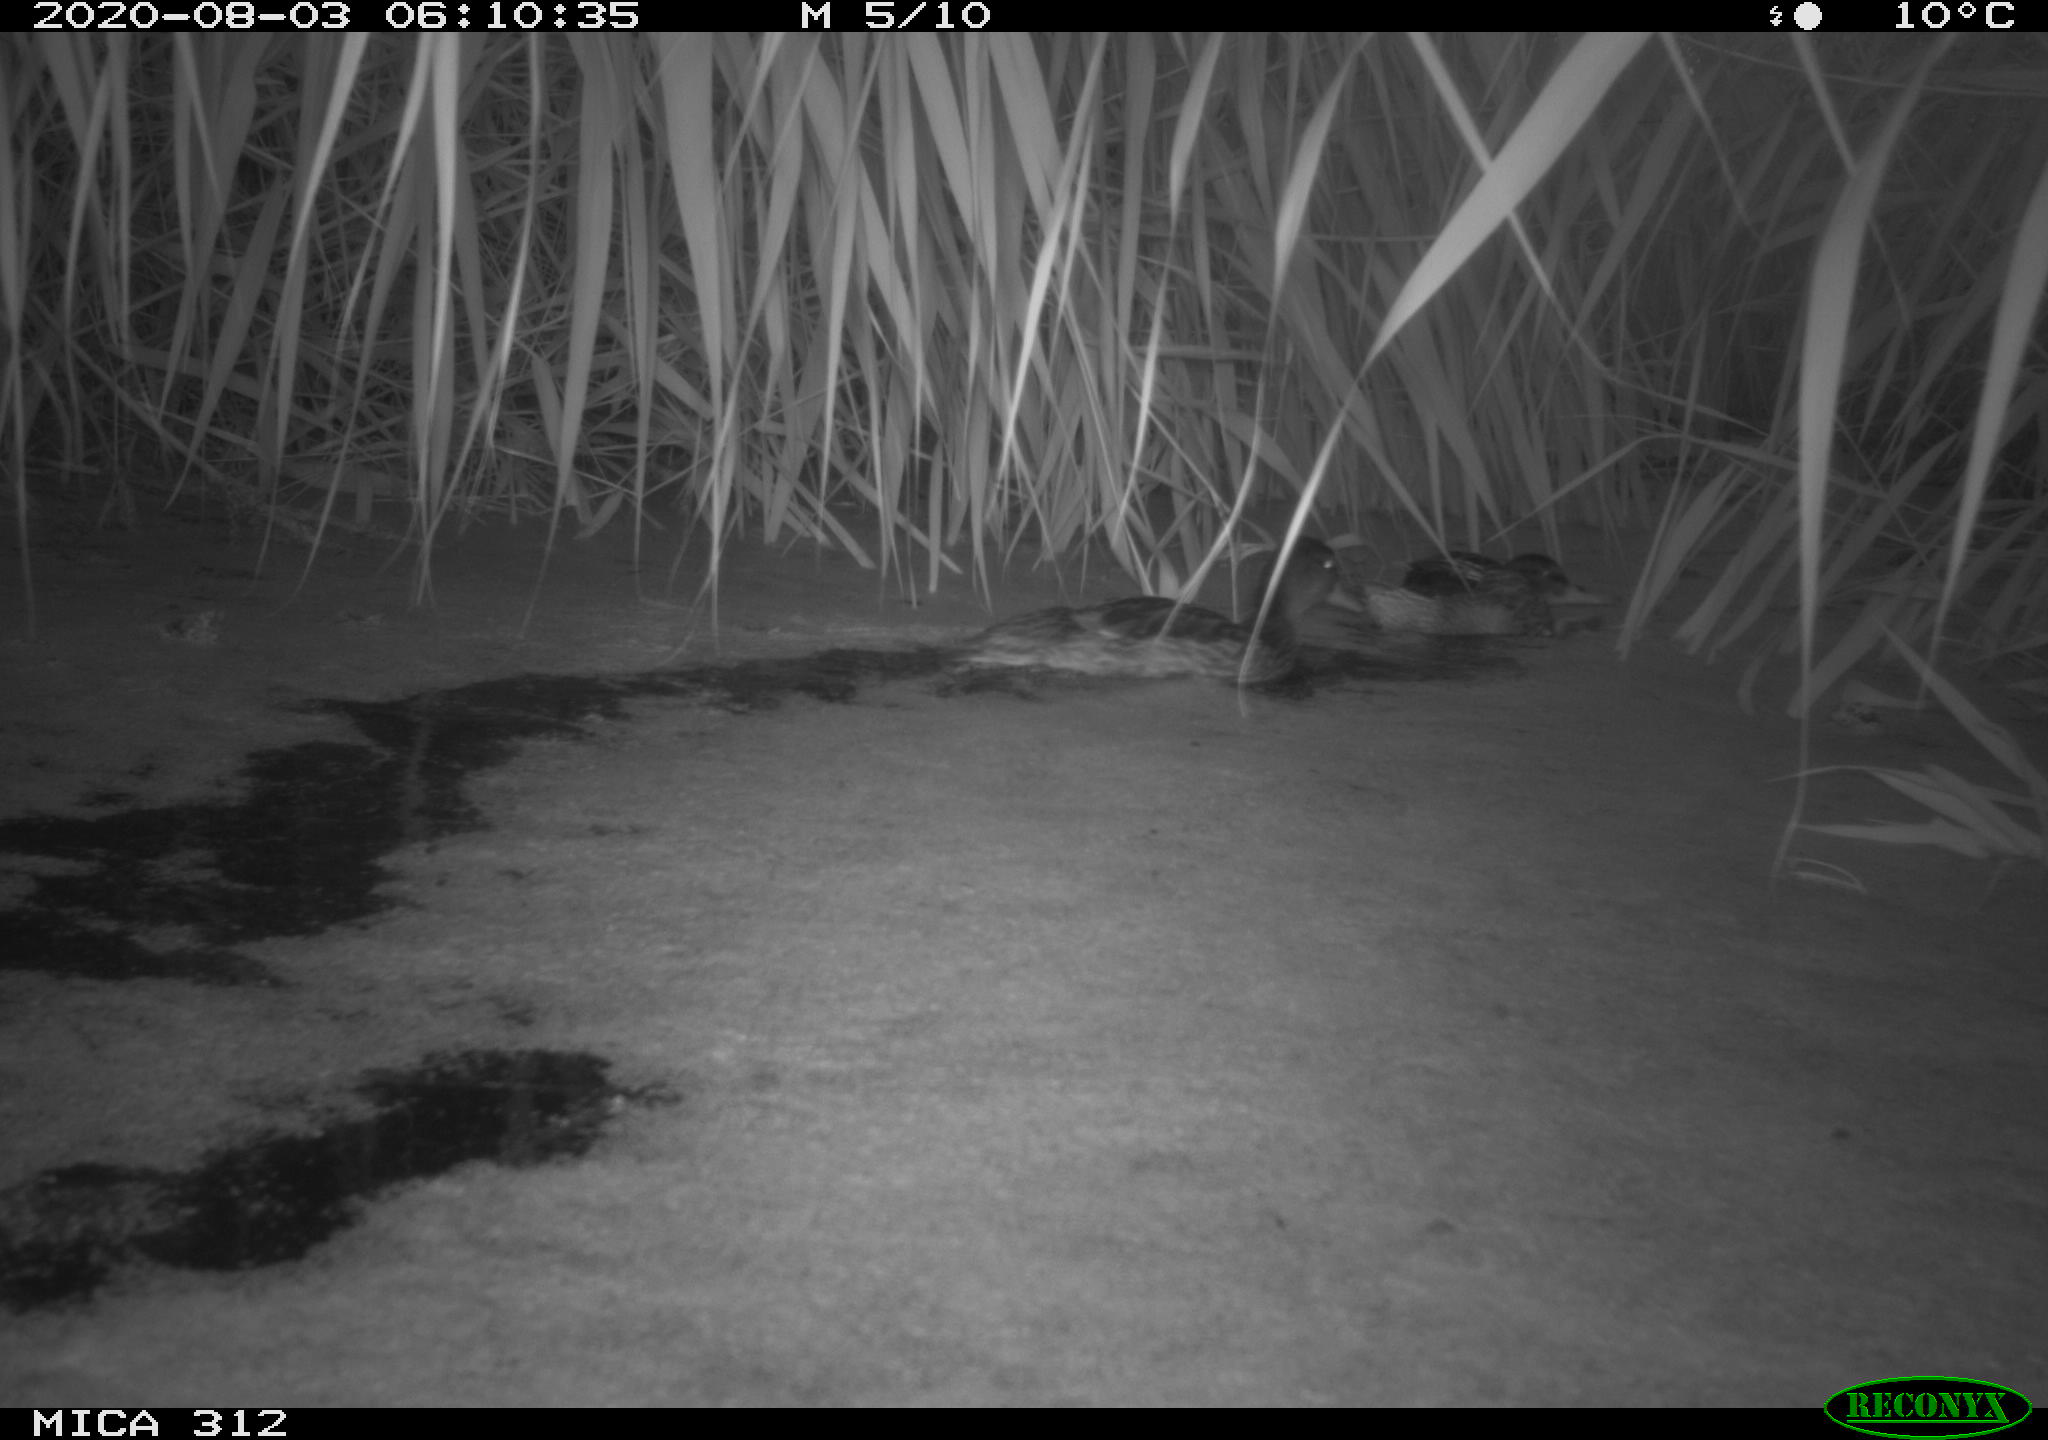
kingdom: Animalia
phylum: Chordata
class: Mammalia
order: Rodentia
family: Muridae
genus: Rattus
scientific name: Rattus norvegicus
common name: Brown rat
